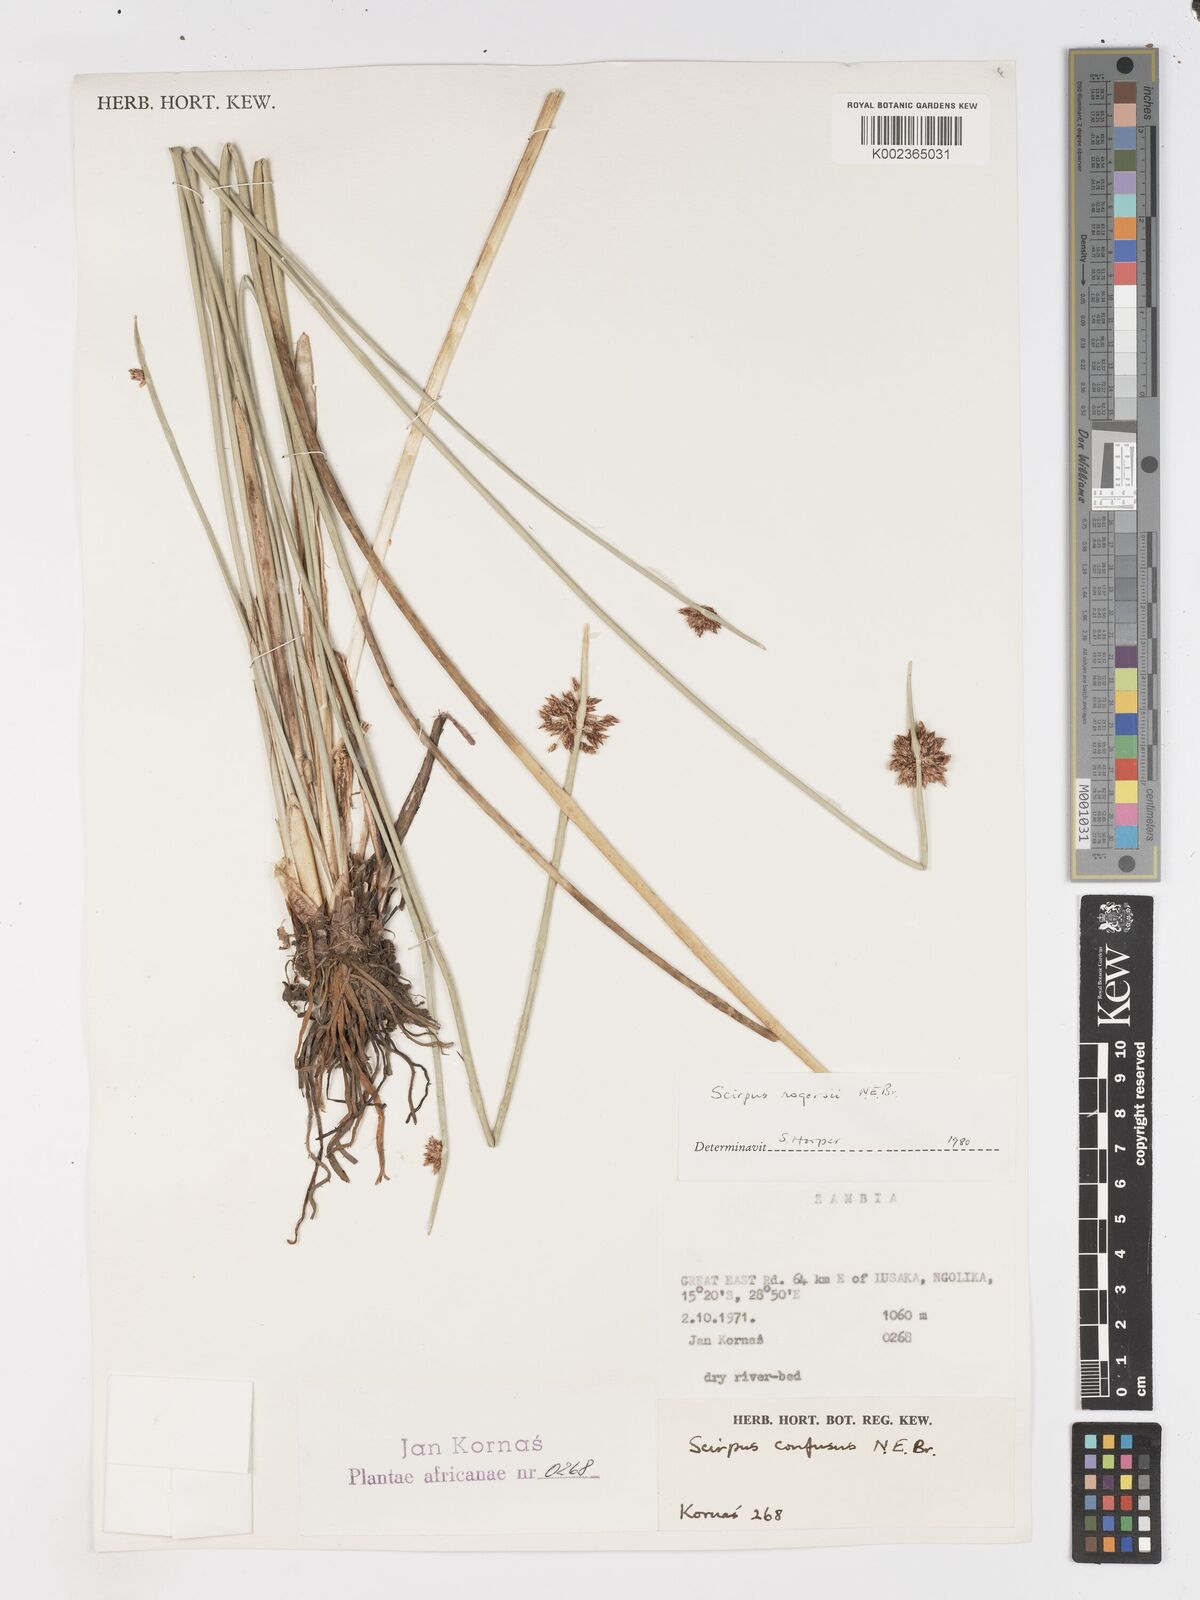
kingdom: Plantae
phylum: Tracheophyta
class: Liliopsida
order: Poales
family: Cyperaceae
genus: Schoenoplectiella
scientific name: Schoenoplectiella rogersii
